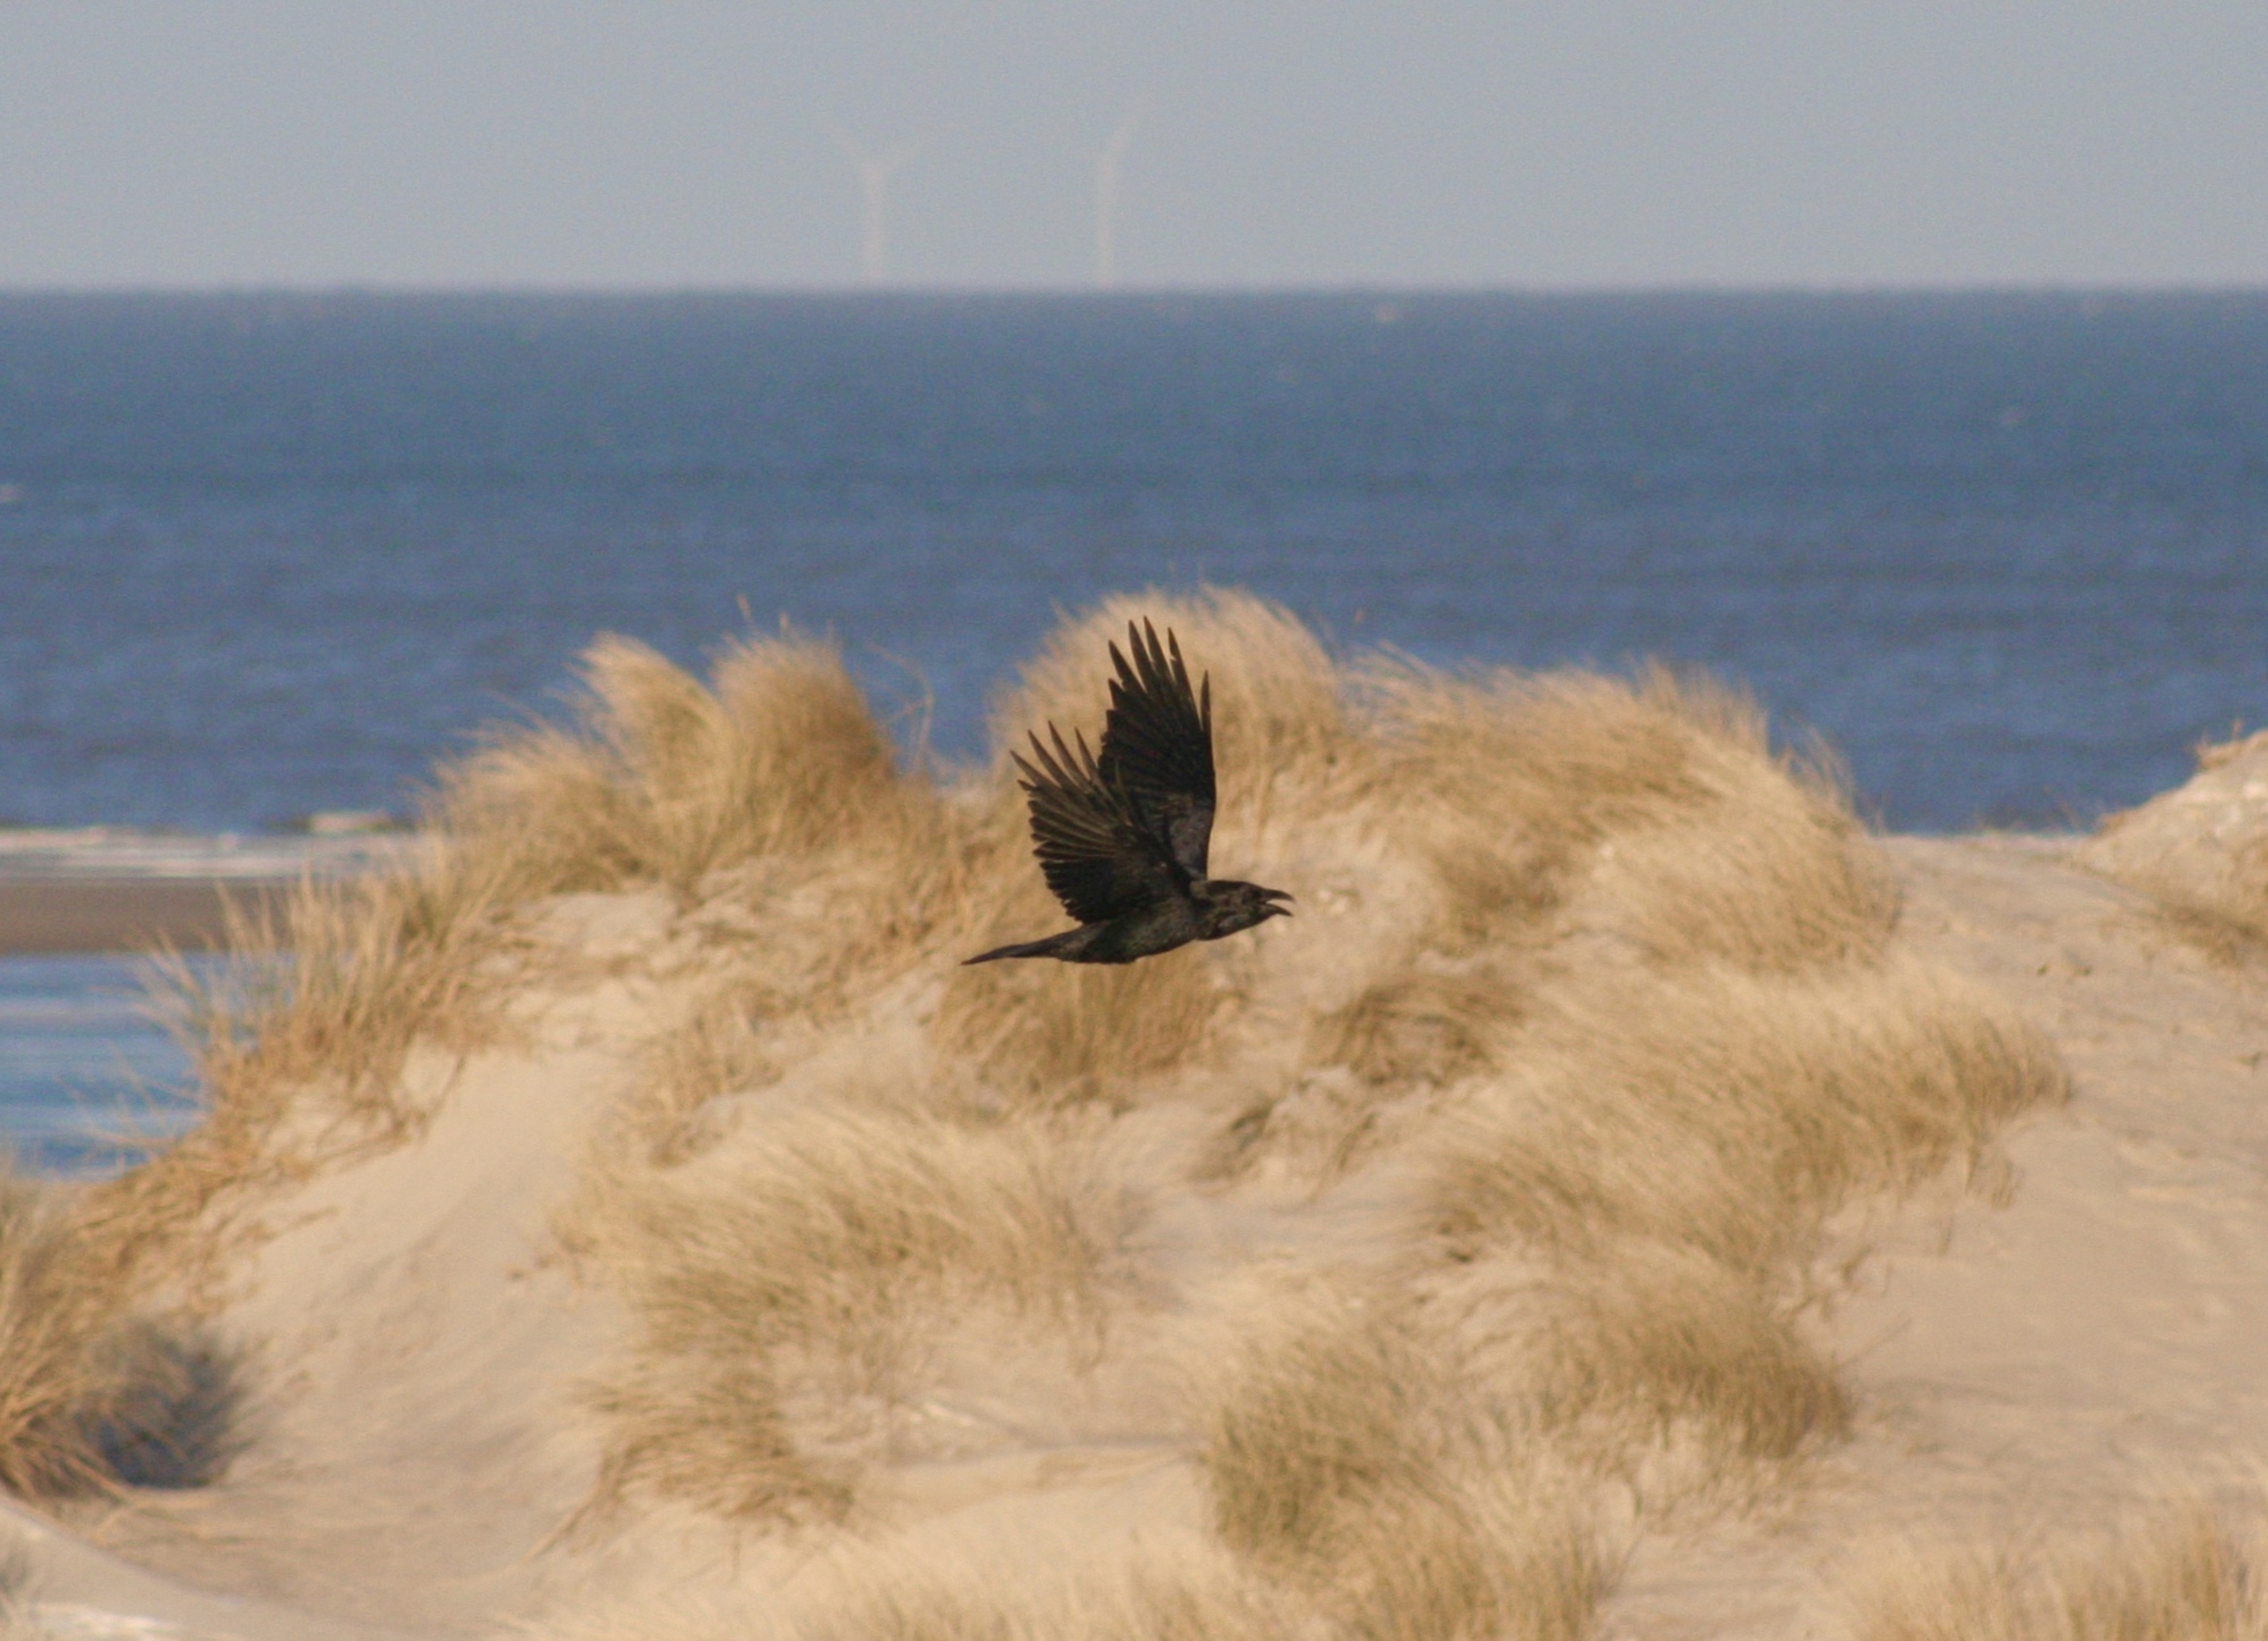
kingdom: Animalia
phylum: Chordata
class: Aves
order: Passeriformes
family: Corvidae
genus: Corvus
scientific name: Corvus corax
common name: Ravn
